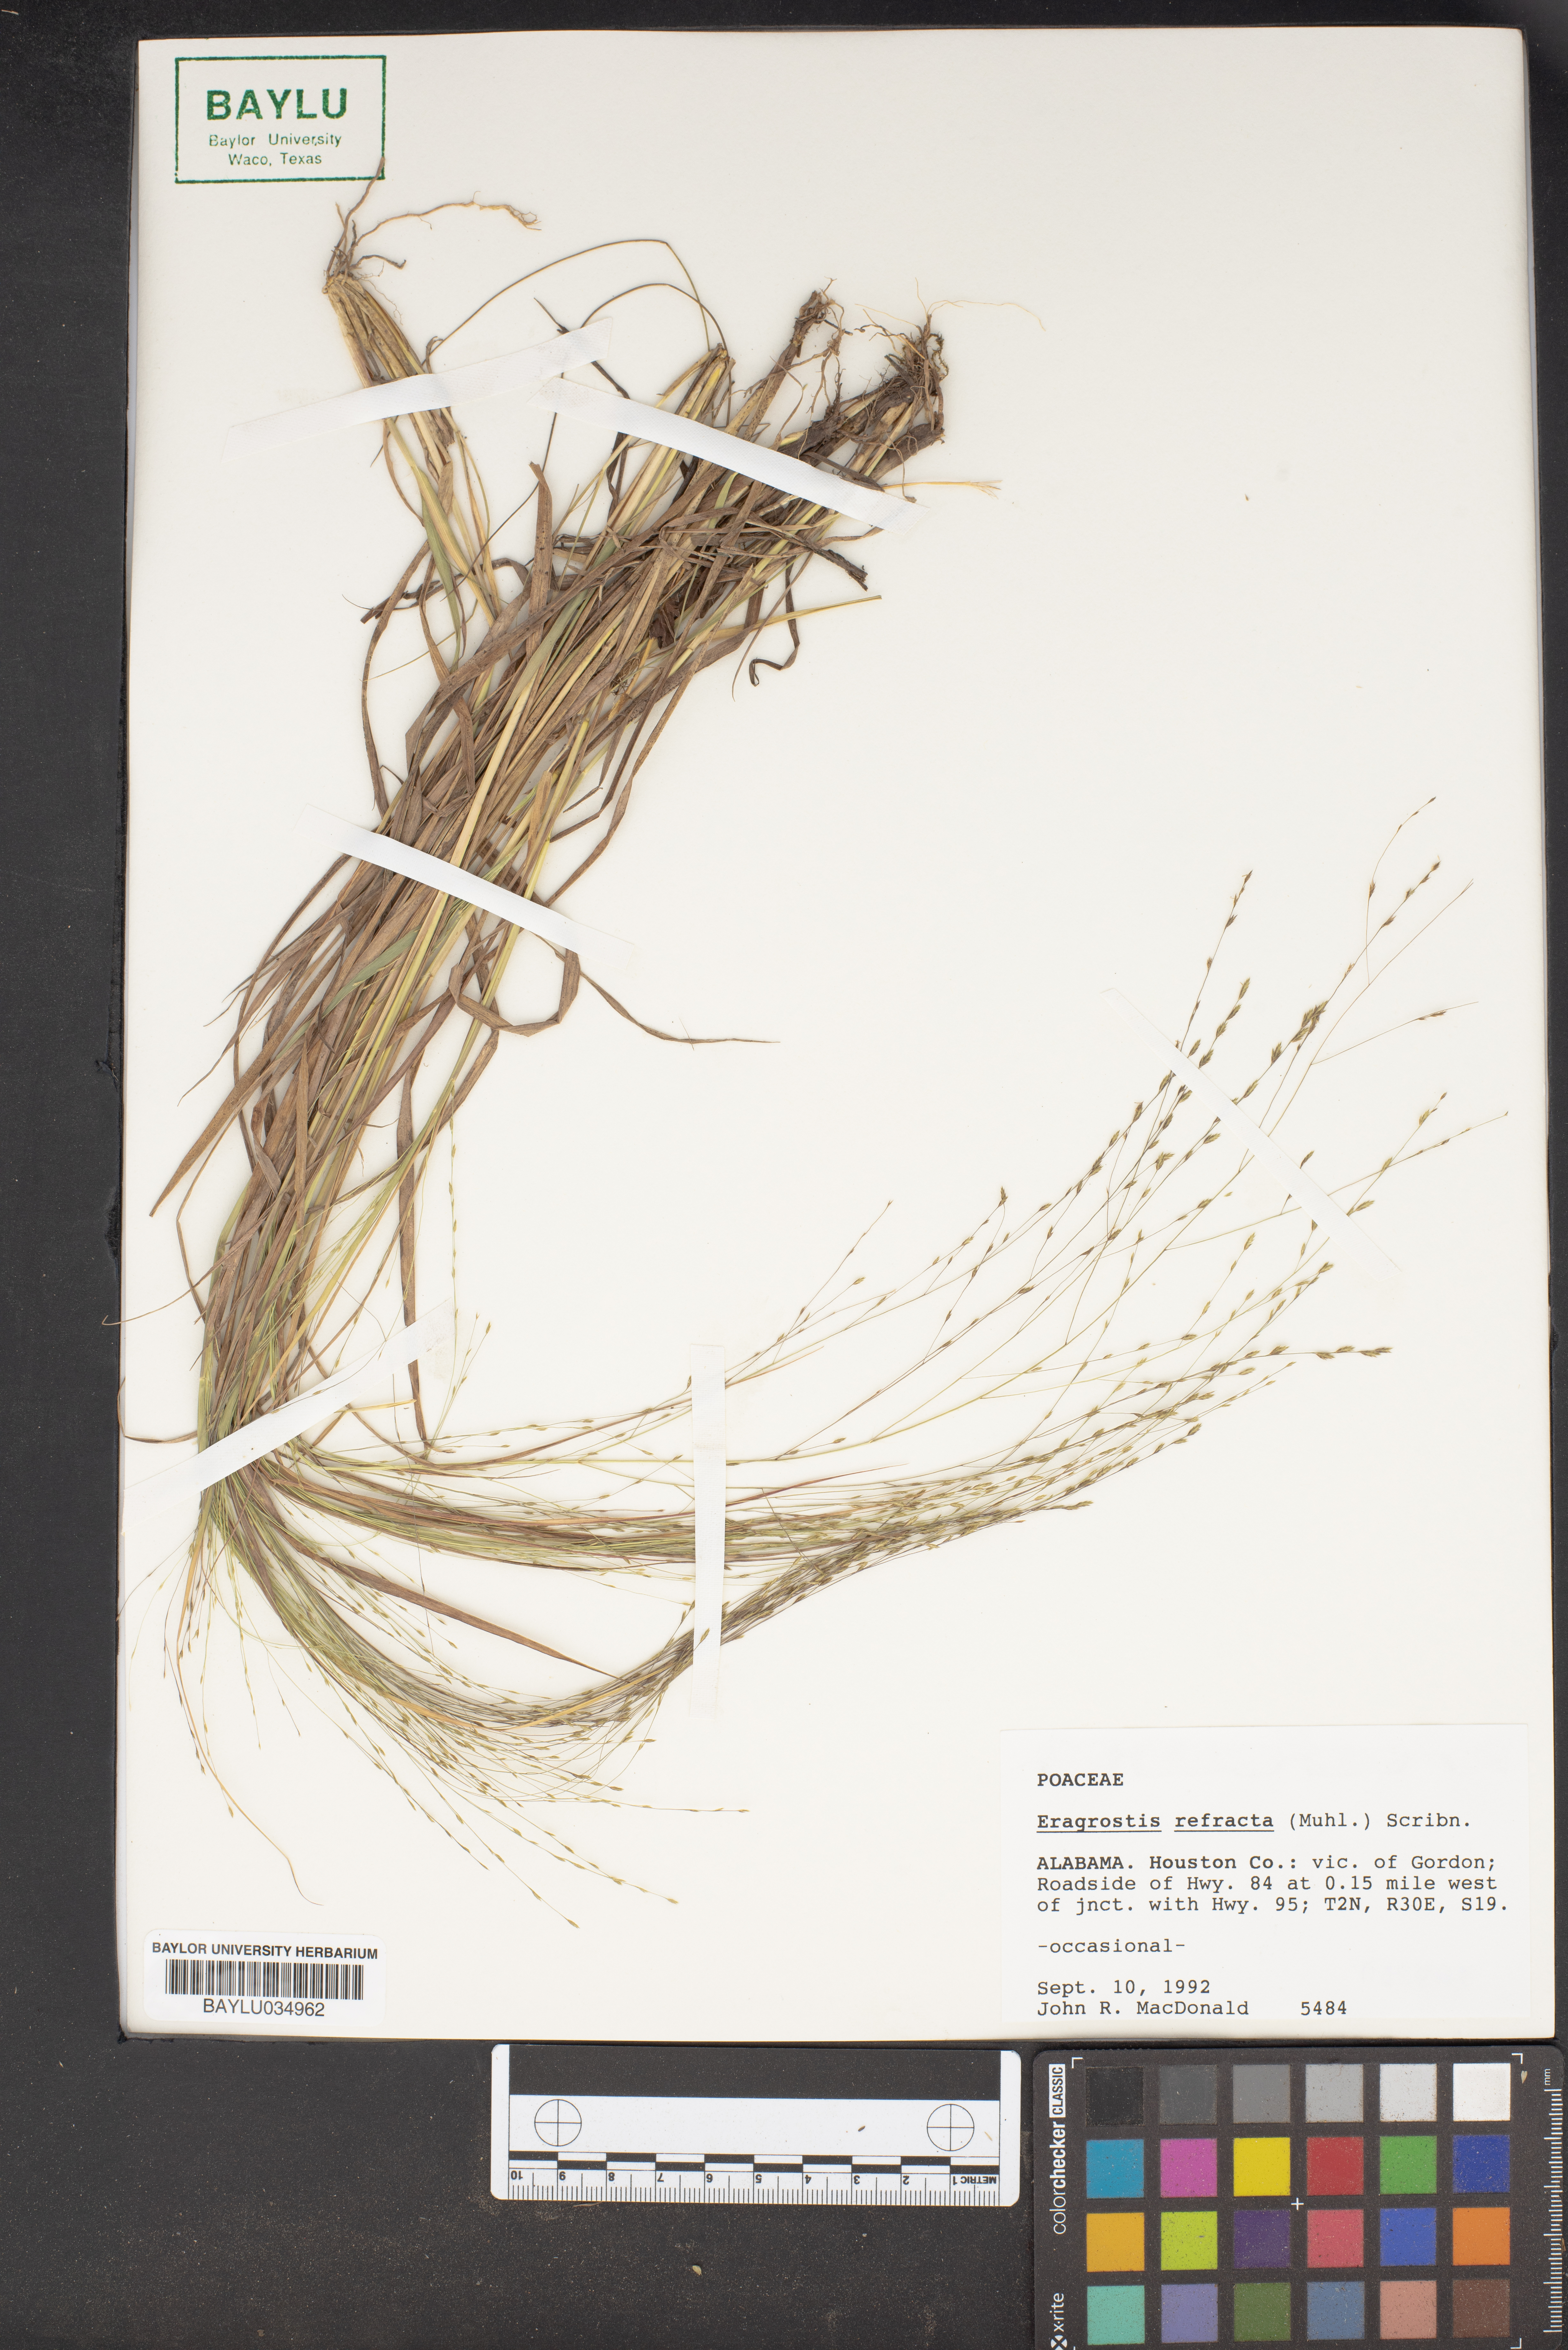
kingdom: Plantae
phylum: Tracheophyta
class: Liliopsida
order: Poales
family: Poaceae
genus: Eragrostis
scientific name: Eragrostis refracta
